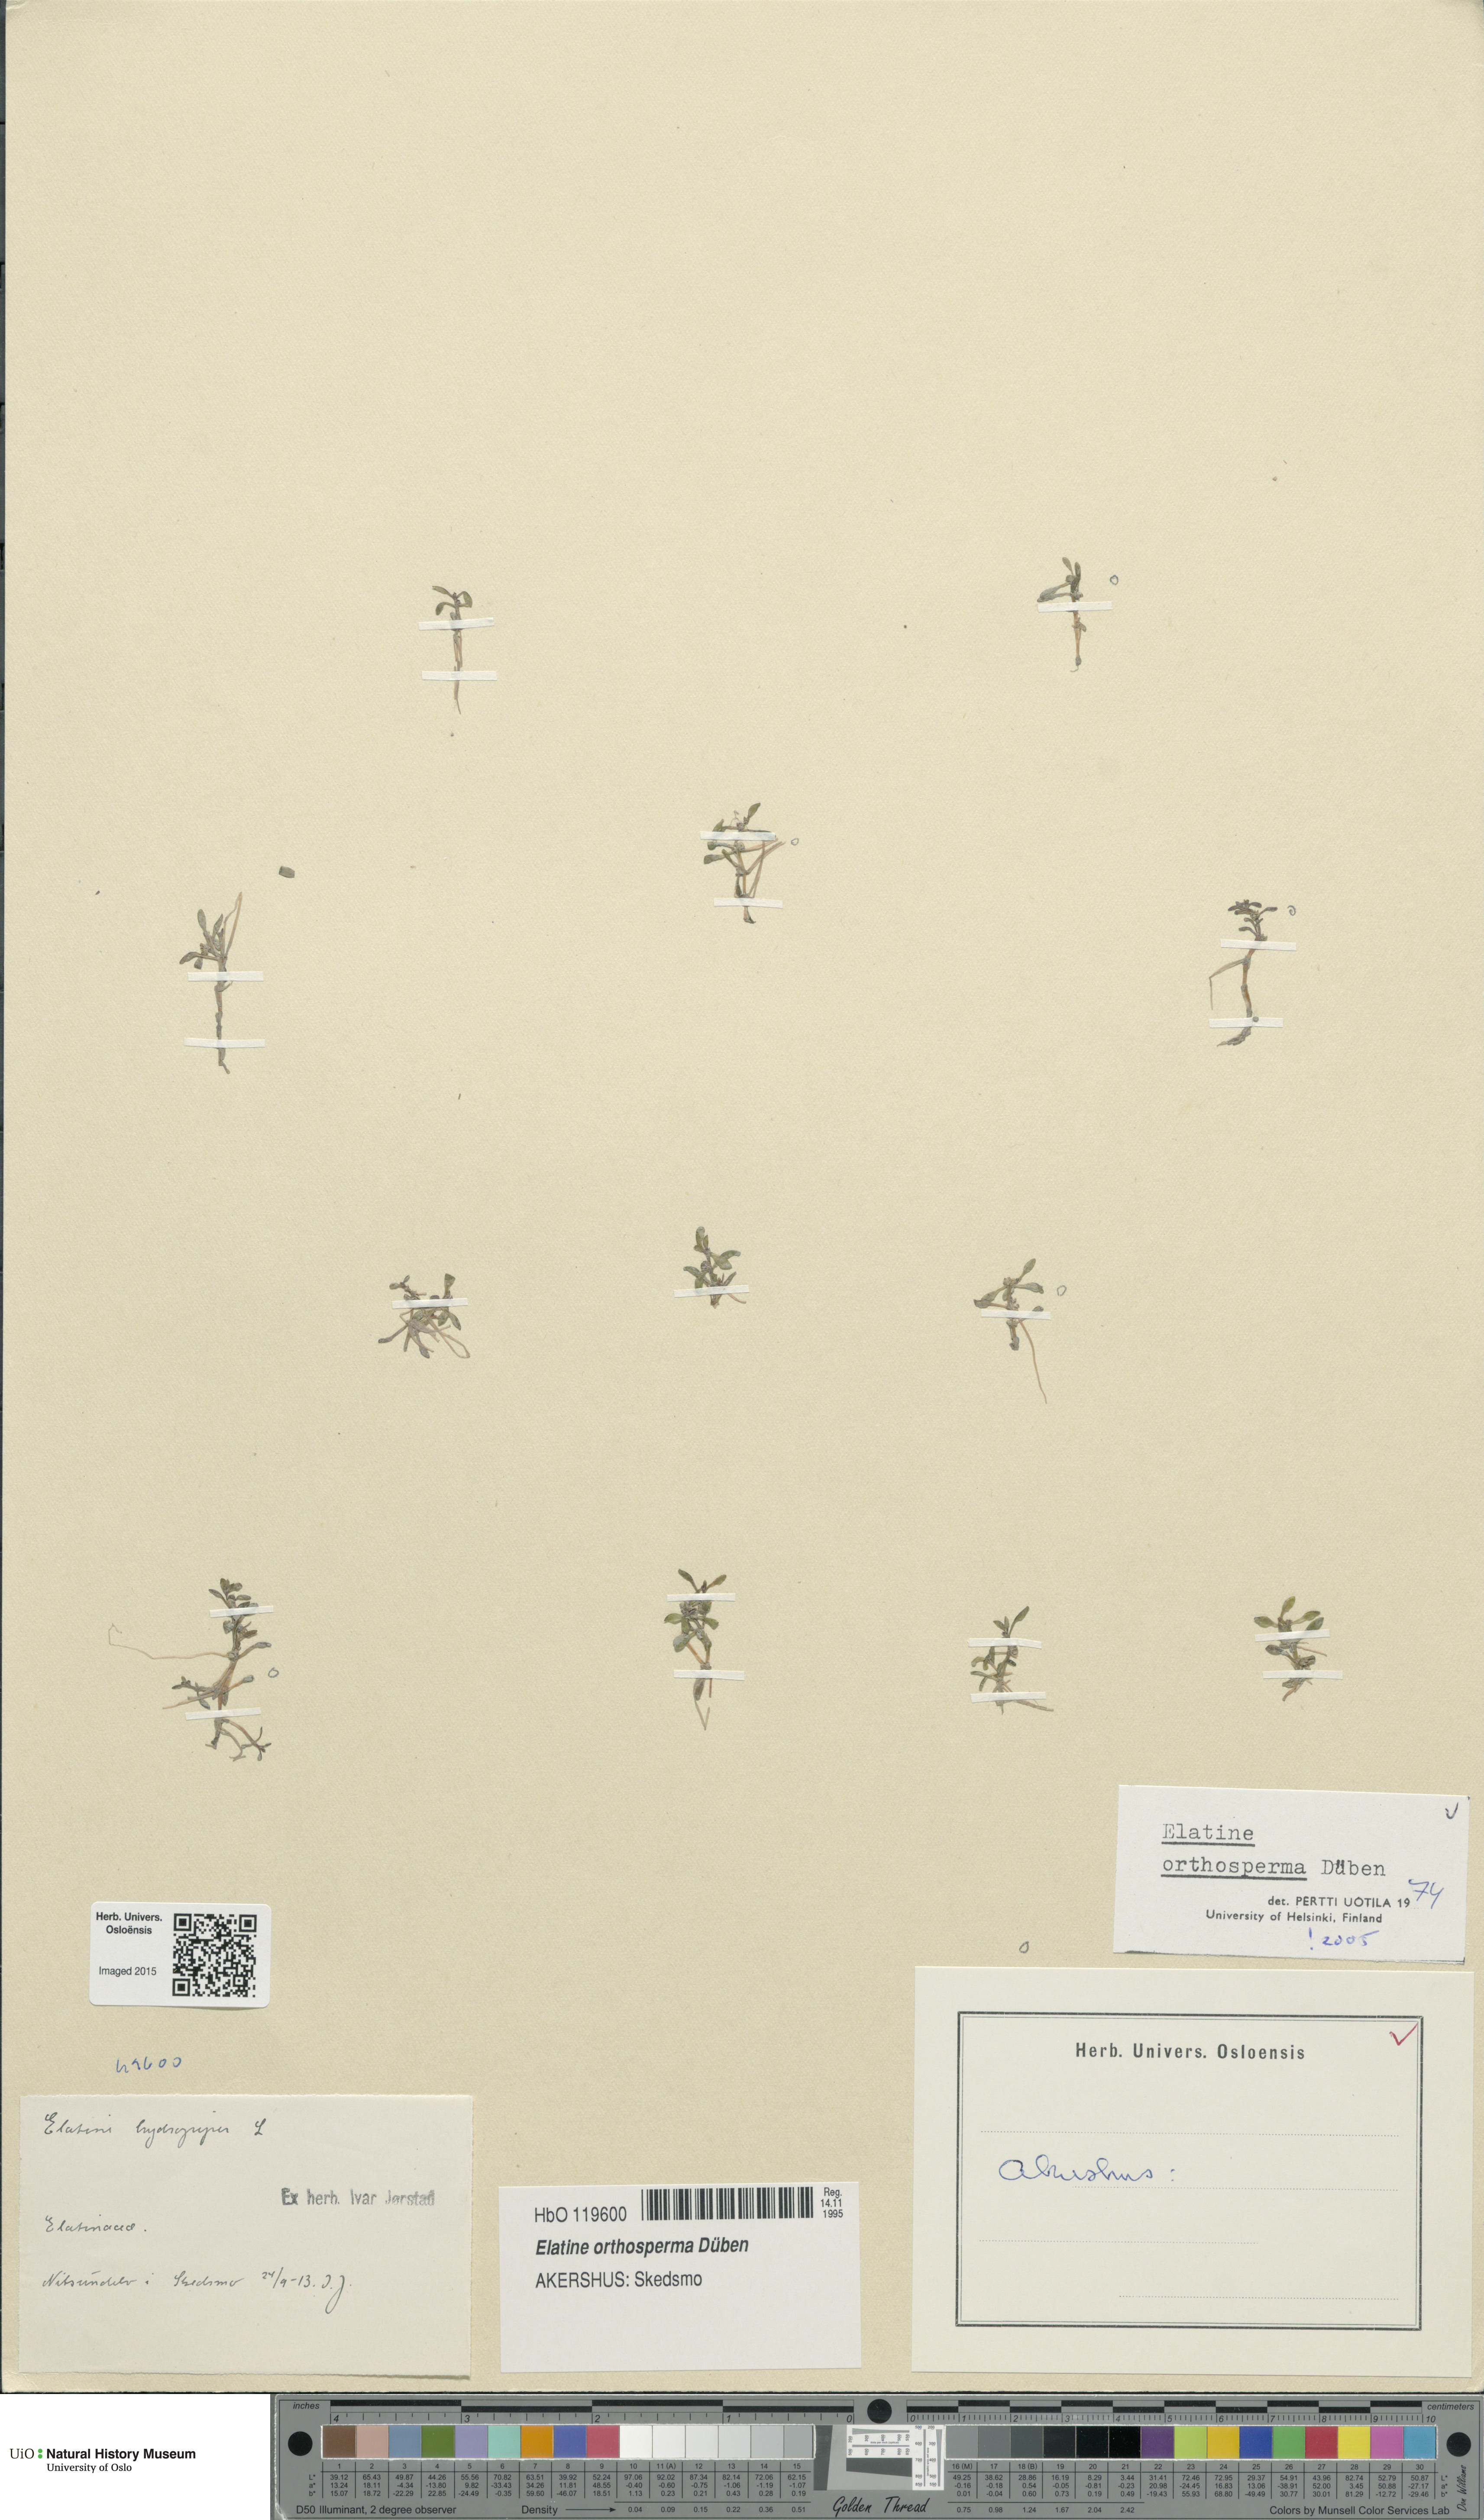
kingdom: Plantae
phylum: Tracheophyta
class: Magnoliopsida
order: Malpighiales
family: Elatinaceae
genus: Elatine
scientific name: Elatine orthosperma
